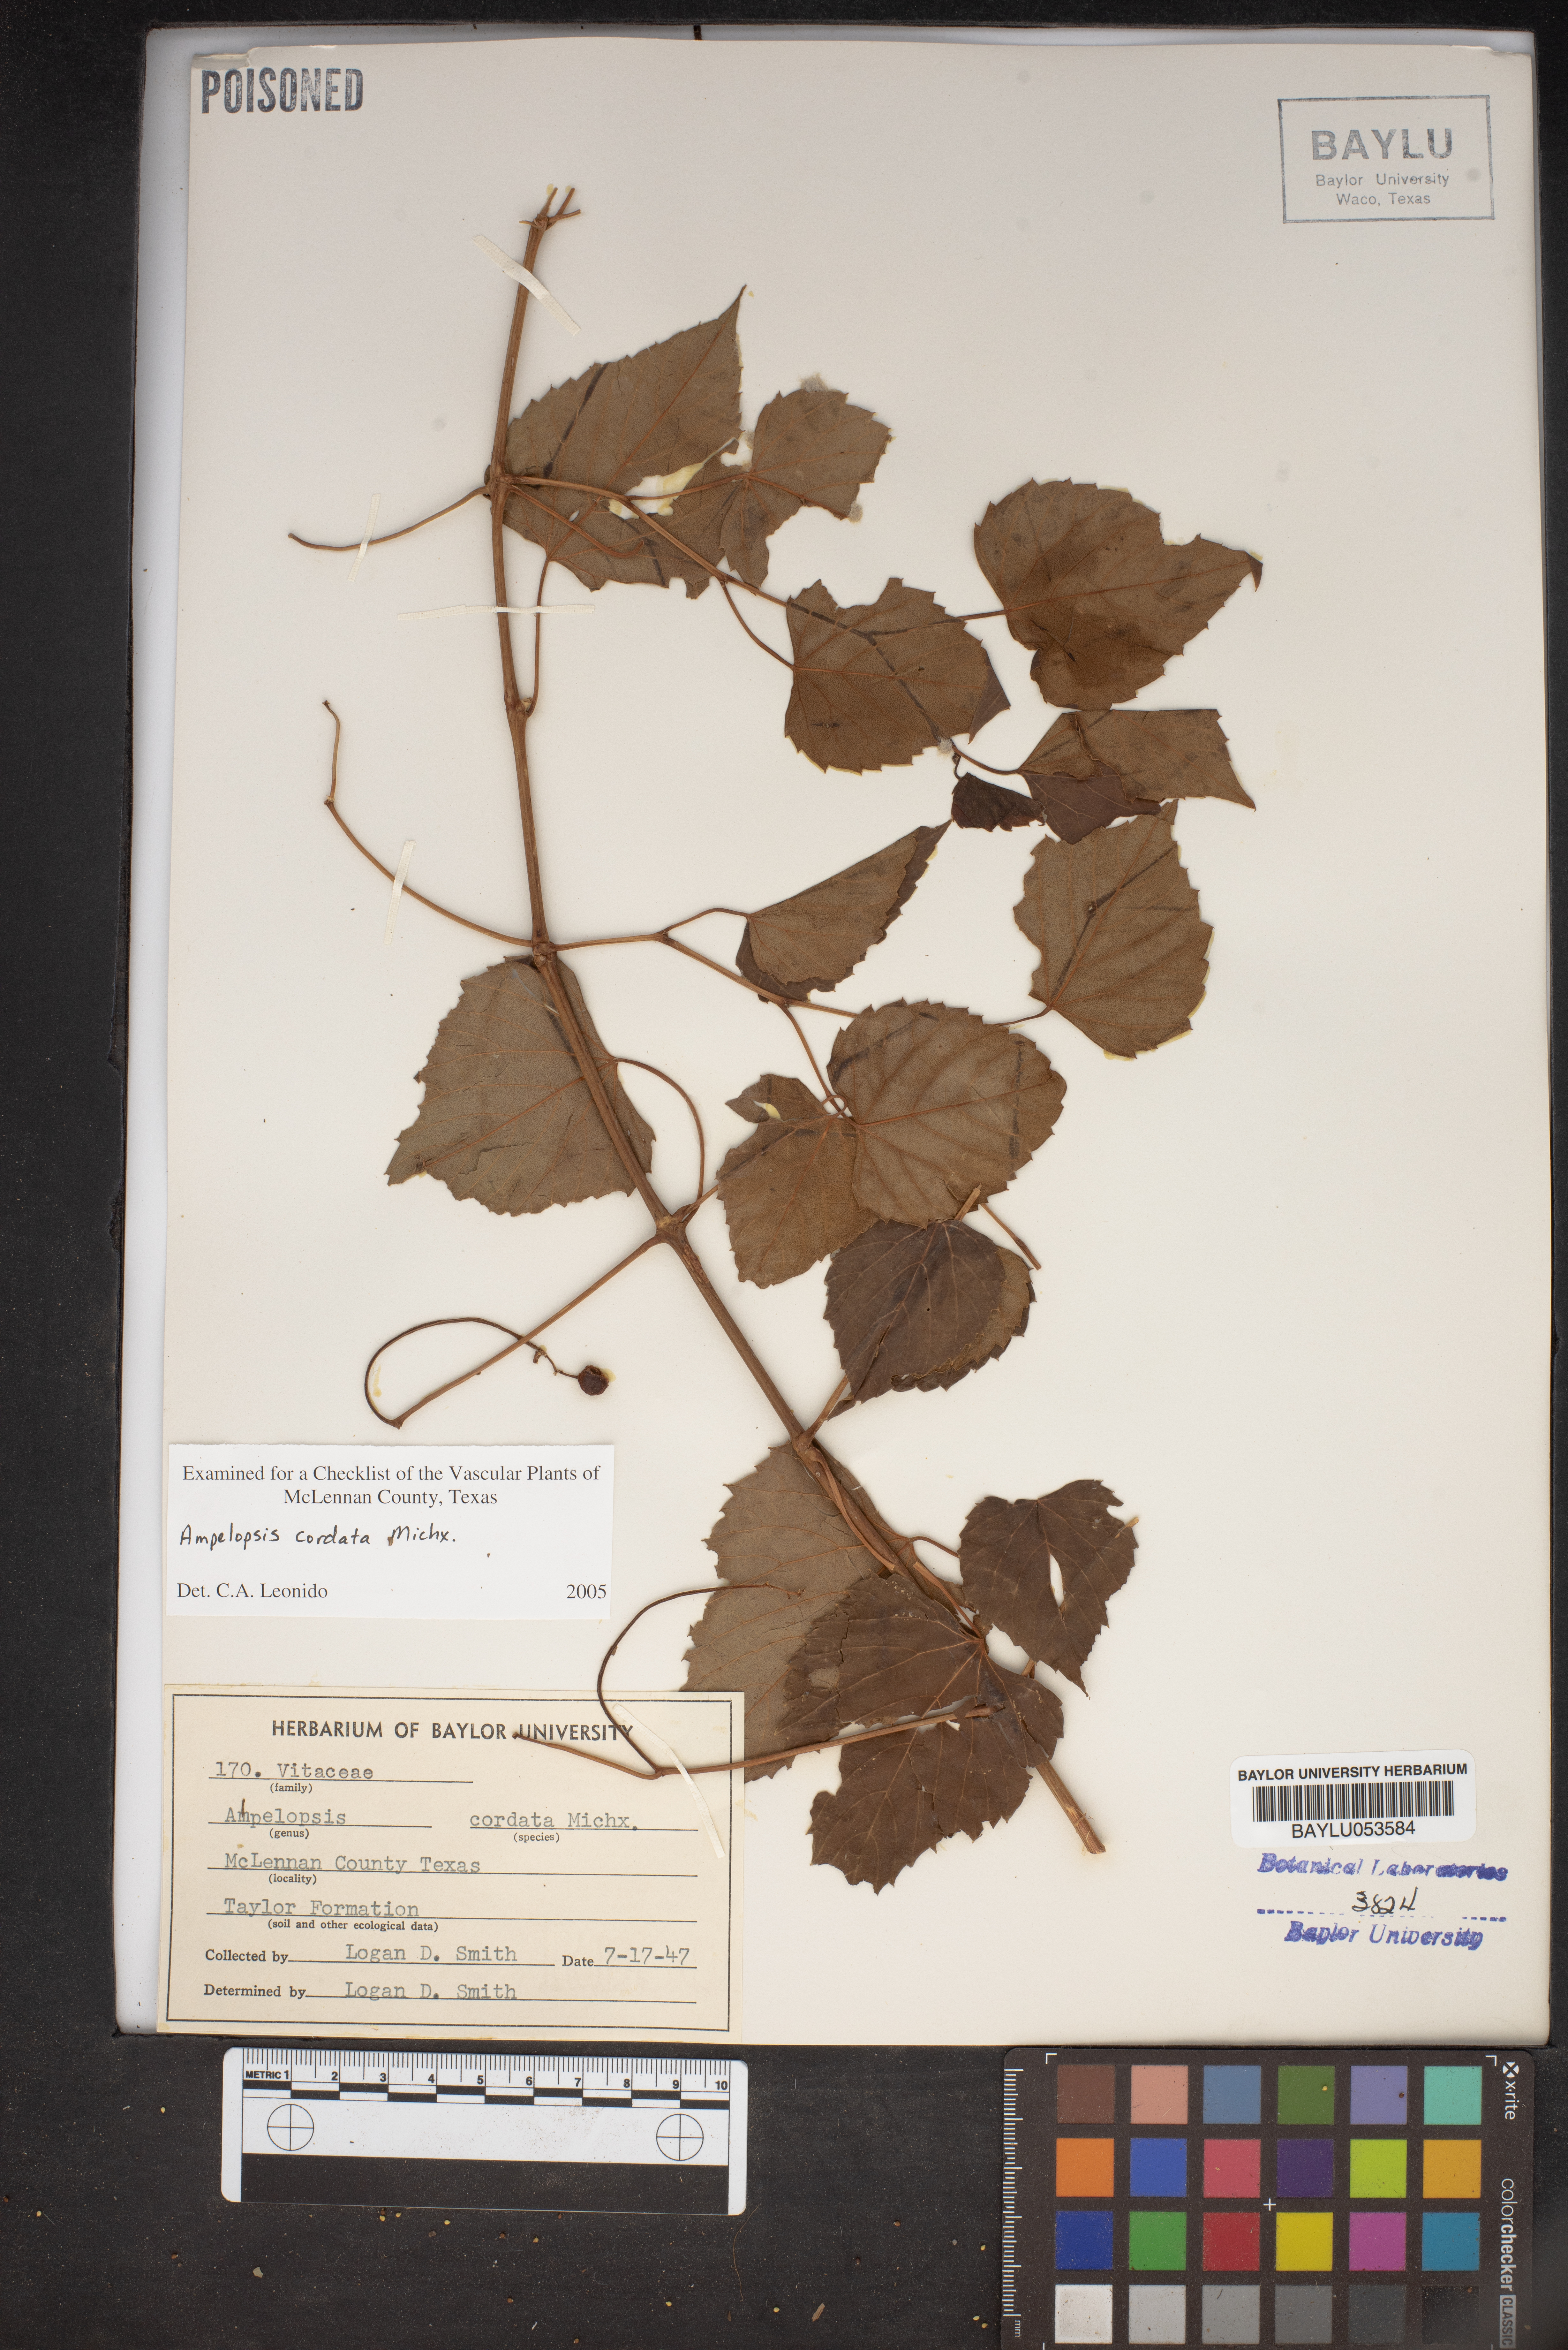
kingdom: Plantae
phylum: Tracheophyta
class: Magnoliopsida
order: Vitales
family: Vitaceae
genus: Ampelopsis
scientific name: Ampelopsis cordata
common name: Heart-leaf ampelopsis
